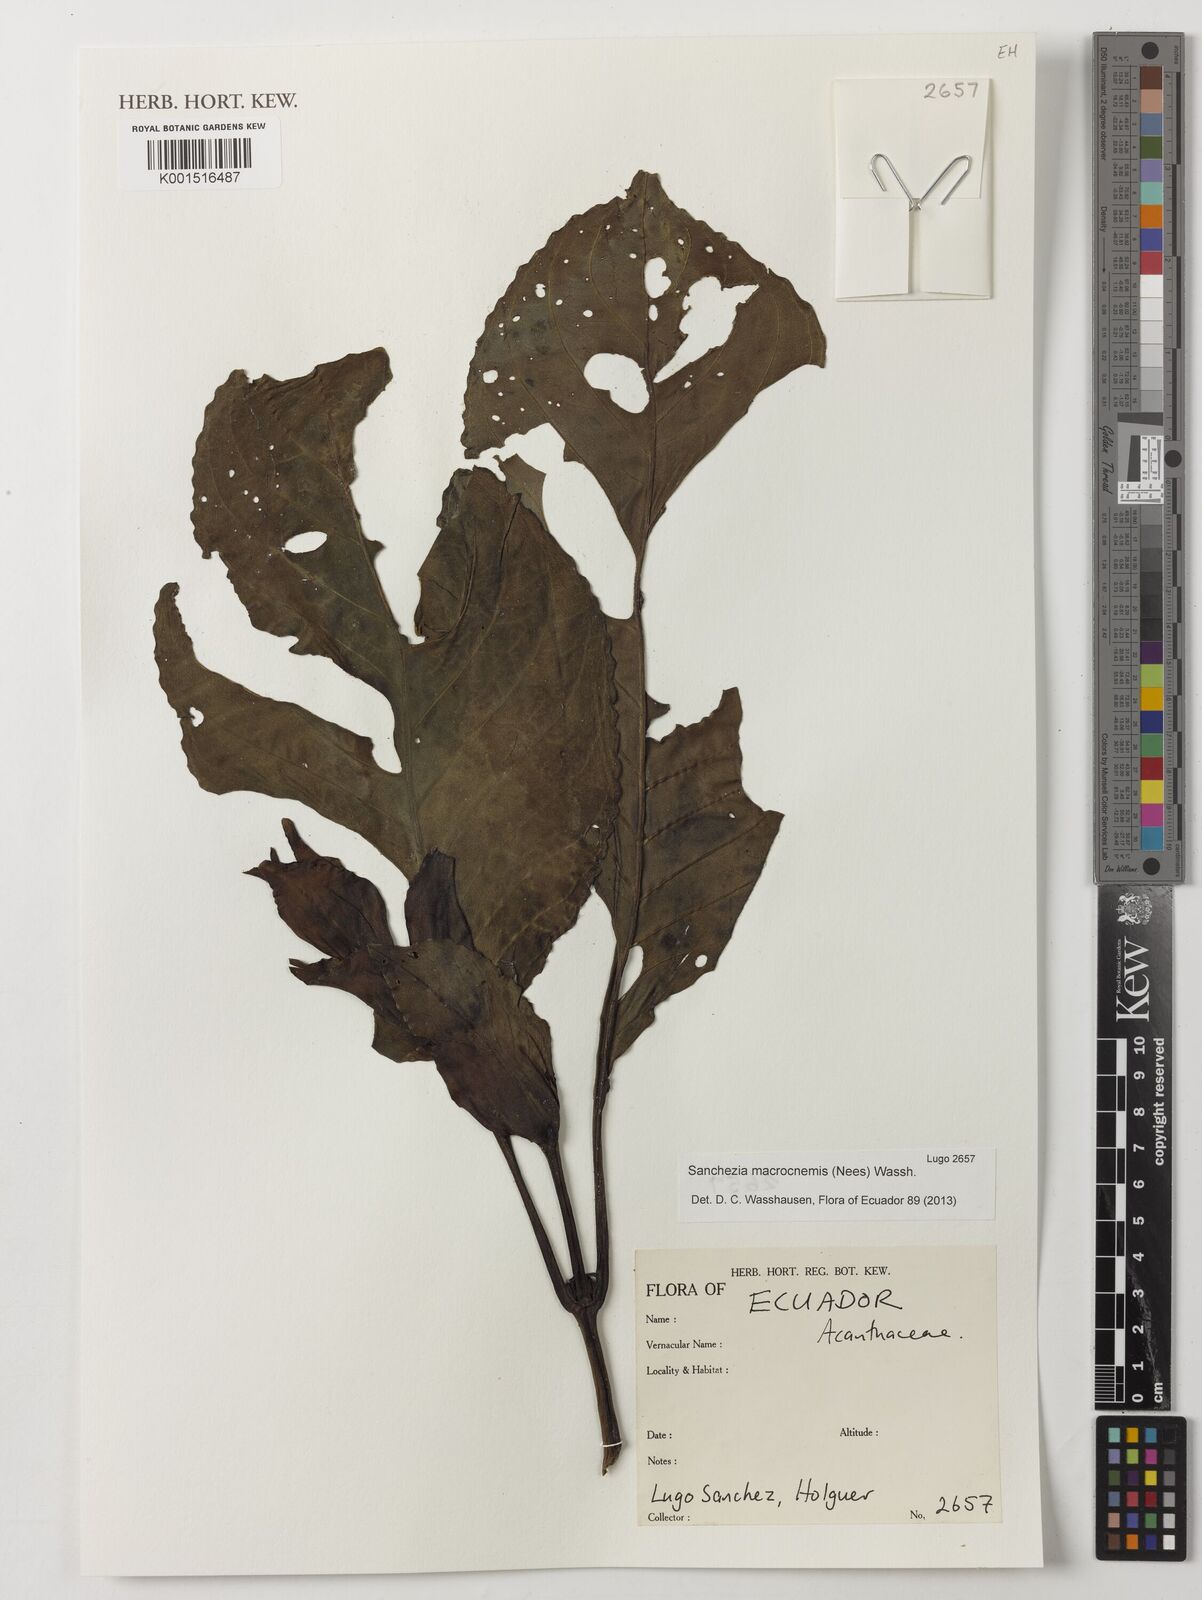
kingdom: Plantae
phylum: Tracheophyta
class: Magnoliopsida
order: Lamiales
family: Acanthaceae
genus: Sanchezia
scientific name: Sanchezia macrocnemis
